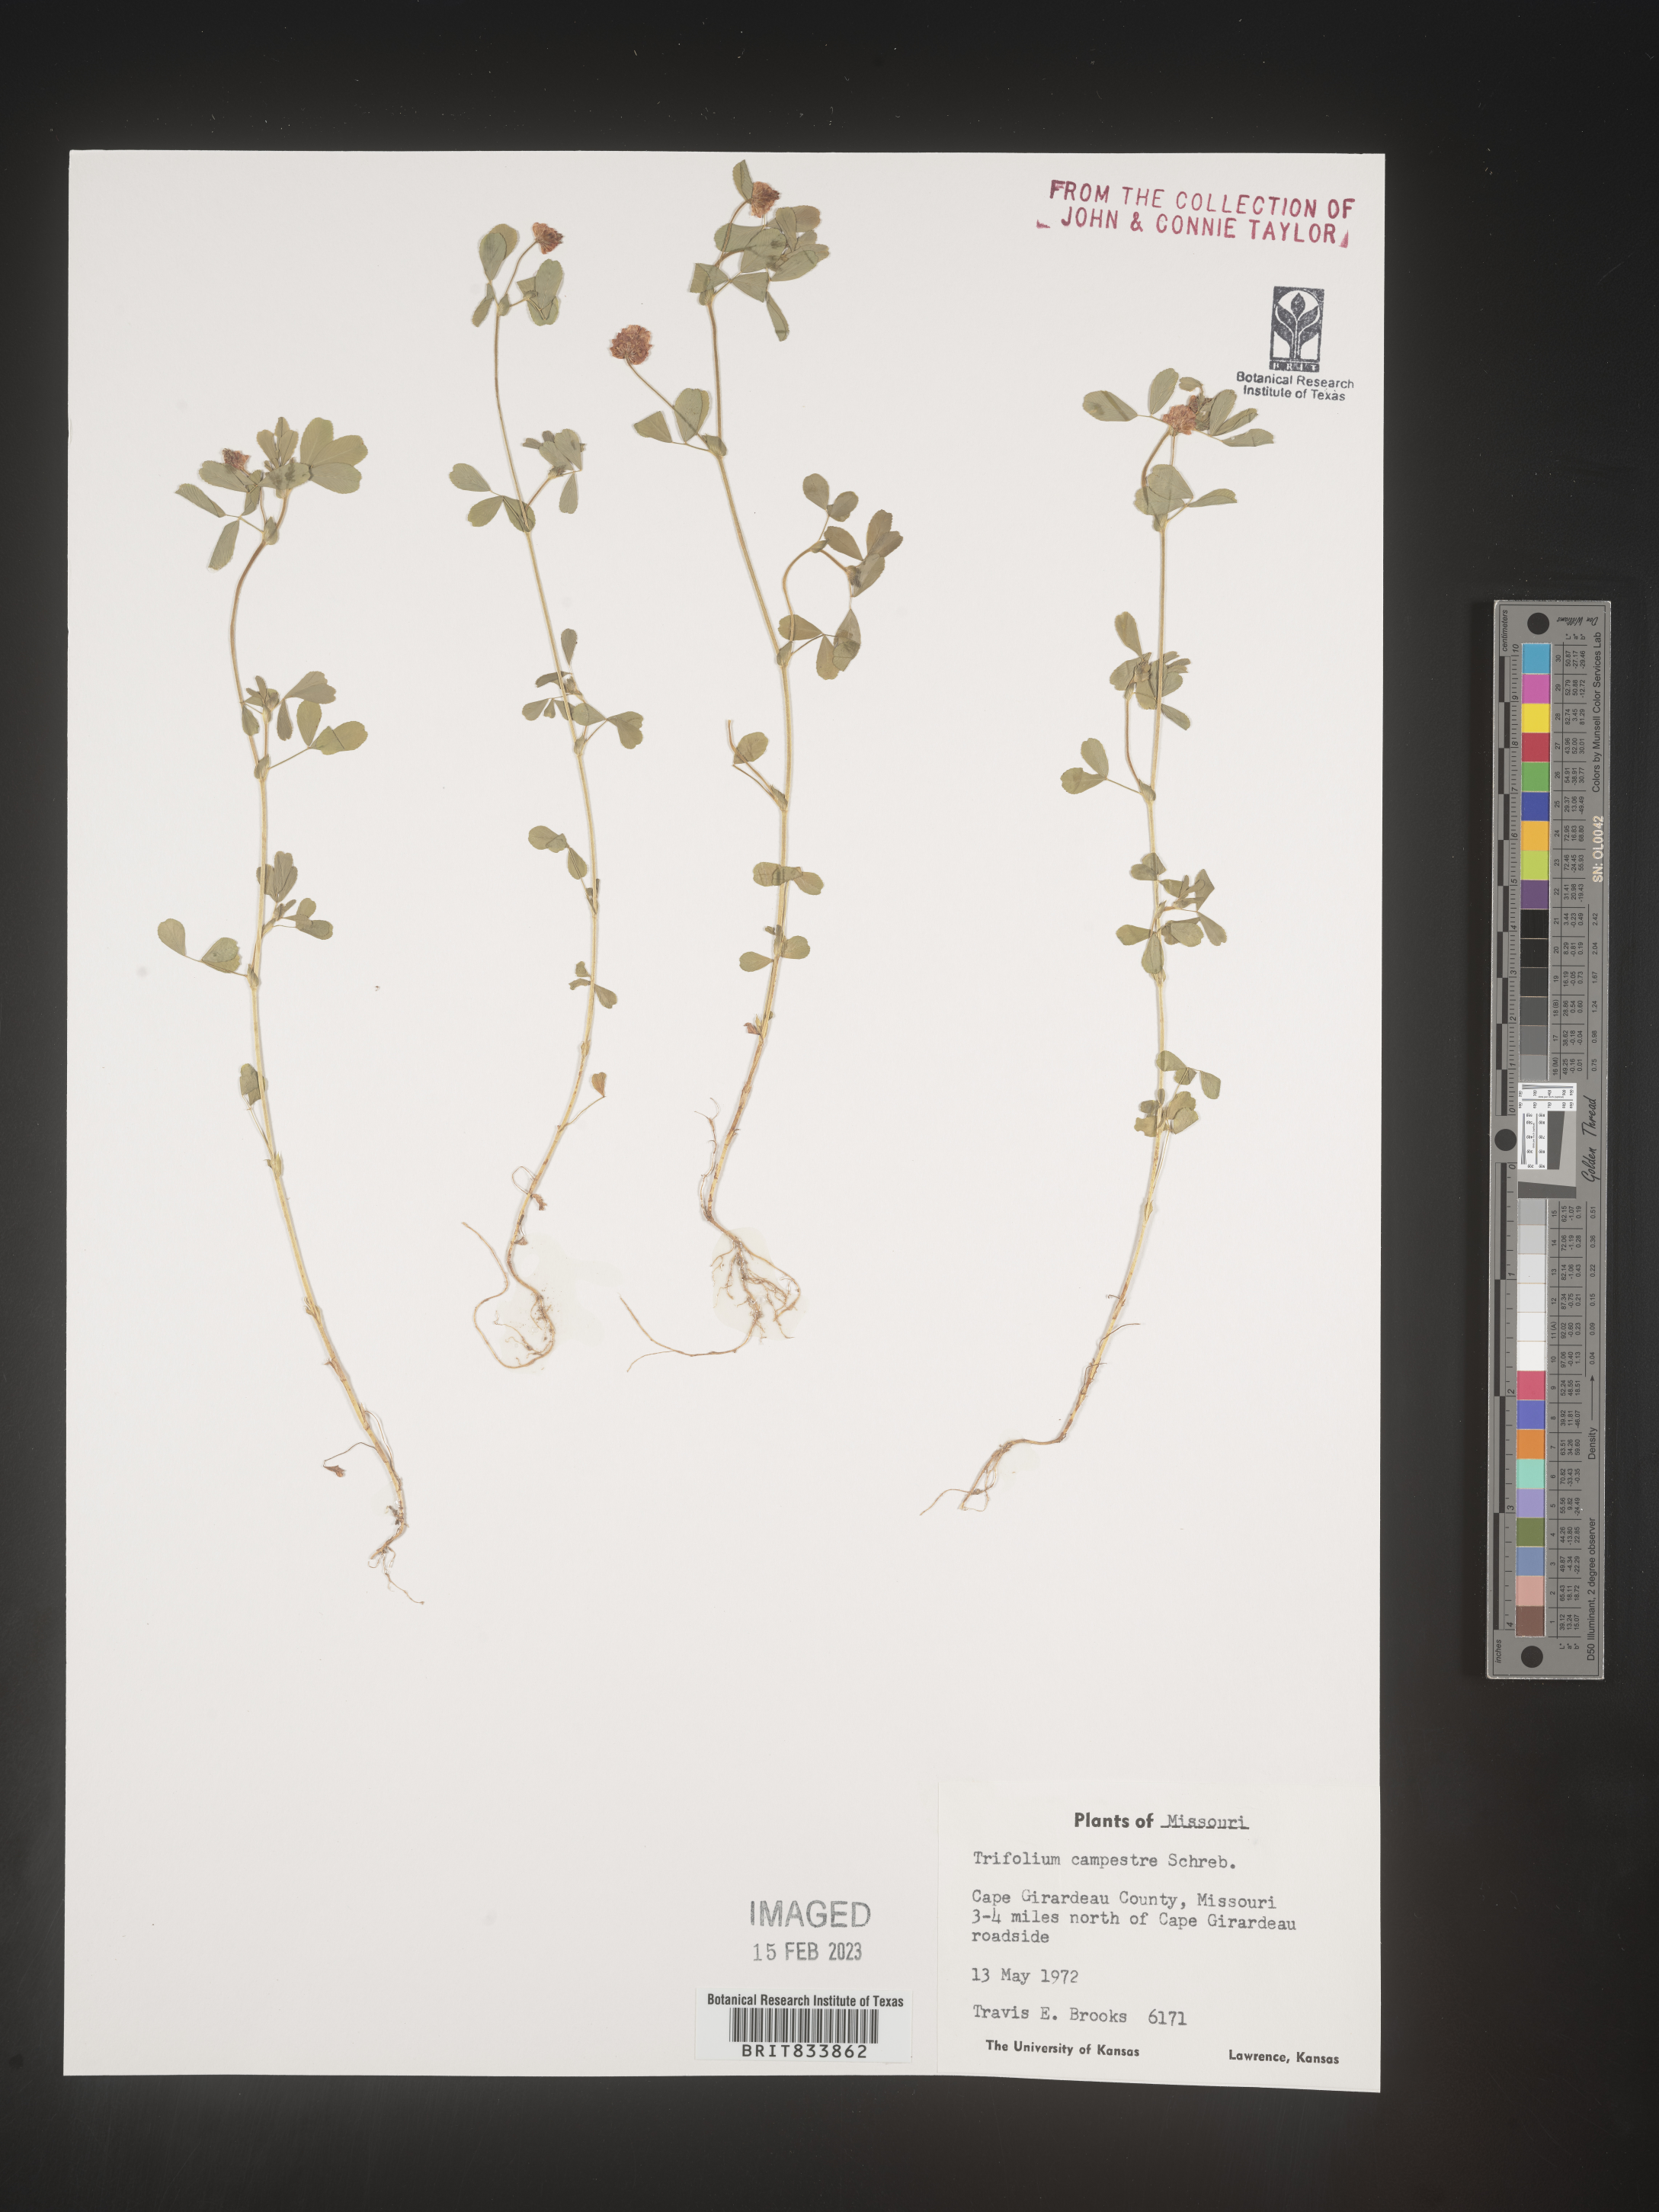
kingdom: Plantae
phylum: Tracheophyta
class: Magnoliopsida
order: Fabales
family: Fabaceae
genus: Trifolium
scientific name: Trifolium campestre
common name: Field clover
